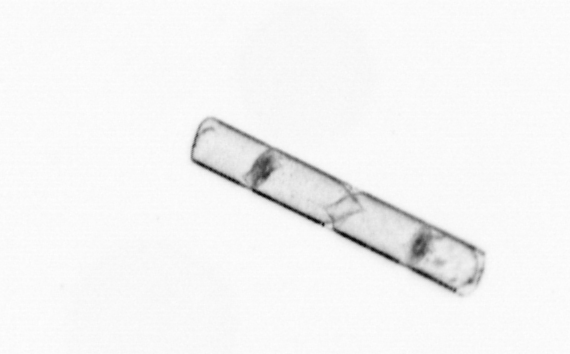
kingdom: Chromista
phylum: Ochrophyta
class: Bacillariophyceae
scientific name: Bacillariophyceae
